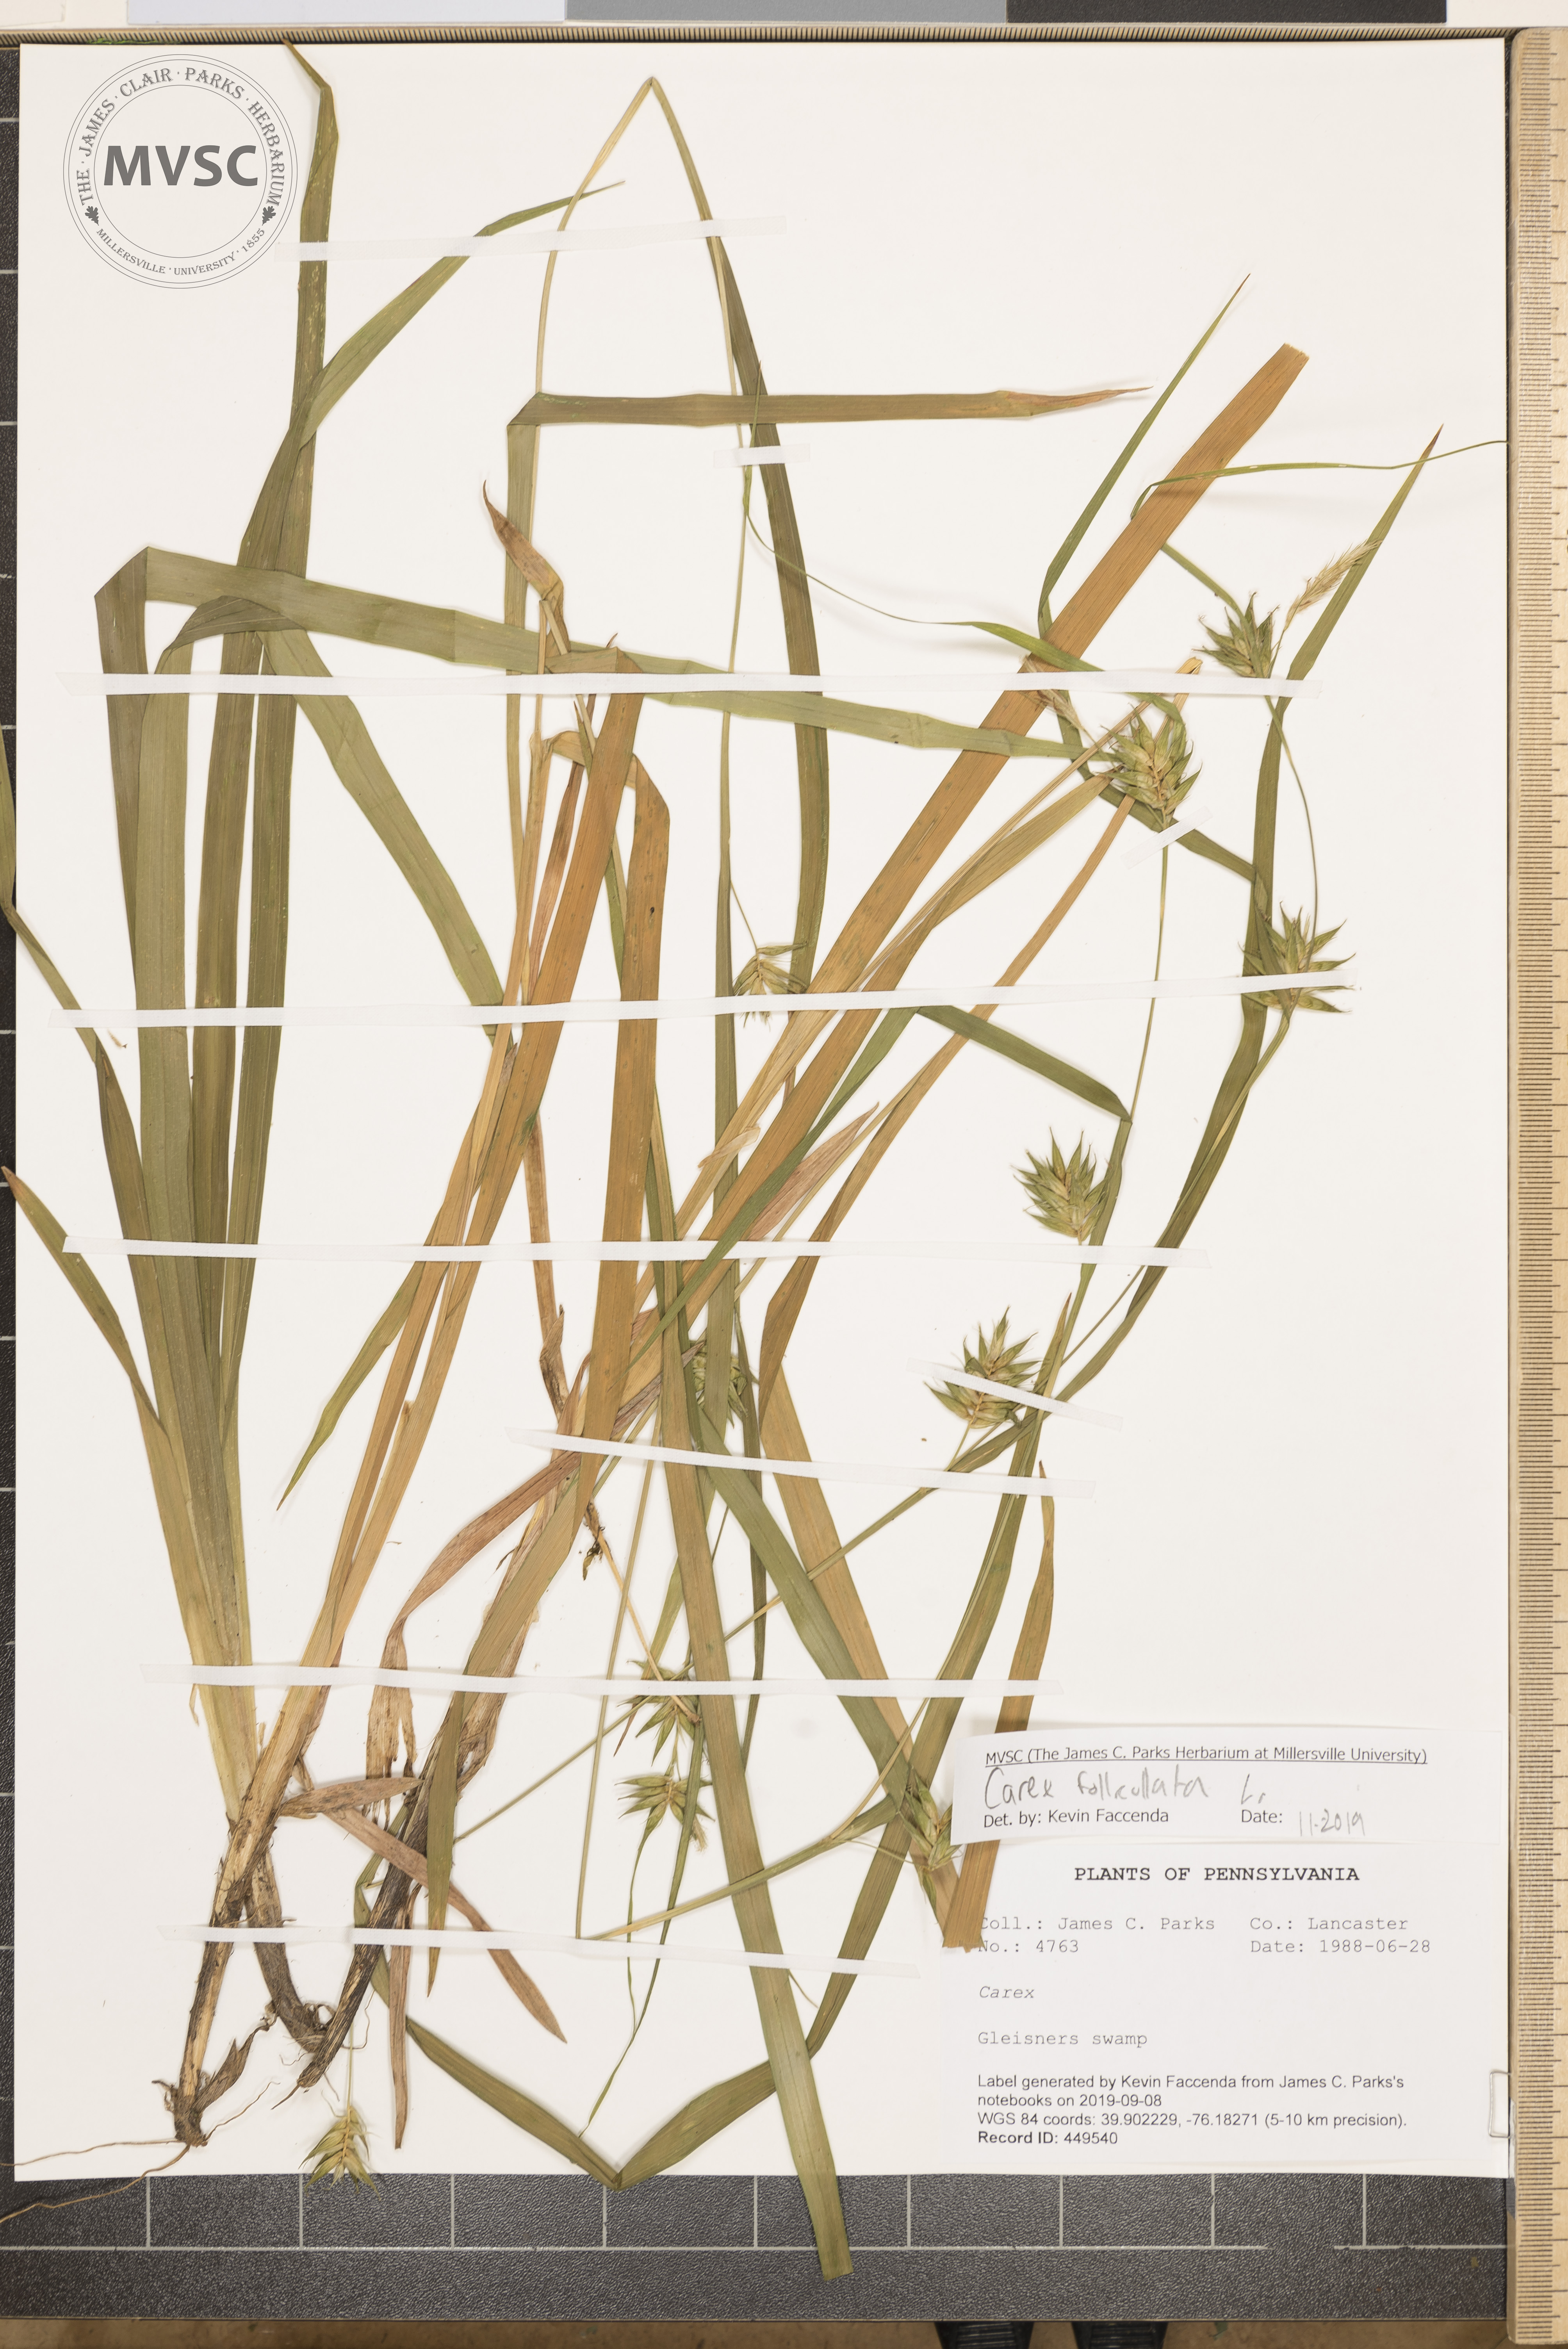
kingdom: Plantae
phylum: Tracheophyta
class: Liliopsida
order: Poales
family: Cyperaceae
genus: Carex
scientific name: Carex folliculata
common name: Northern long sedge
